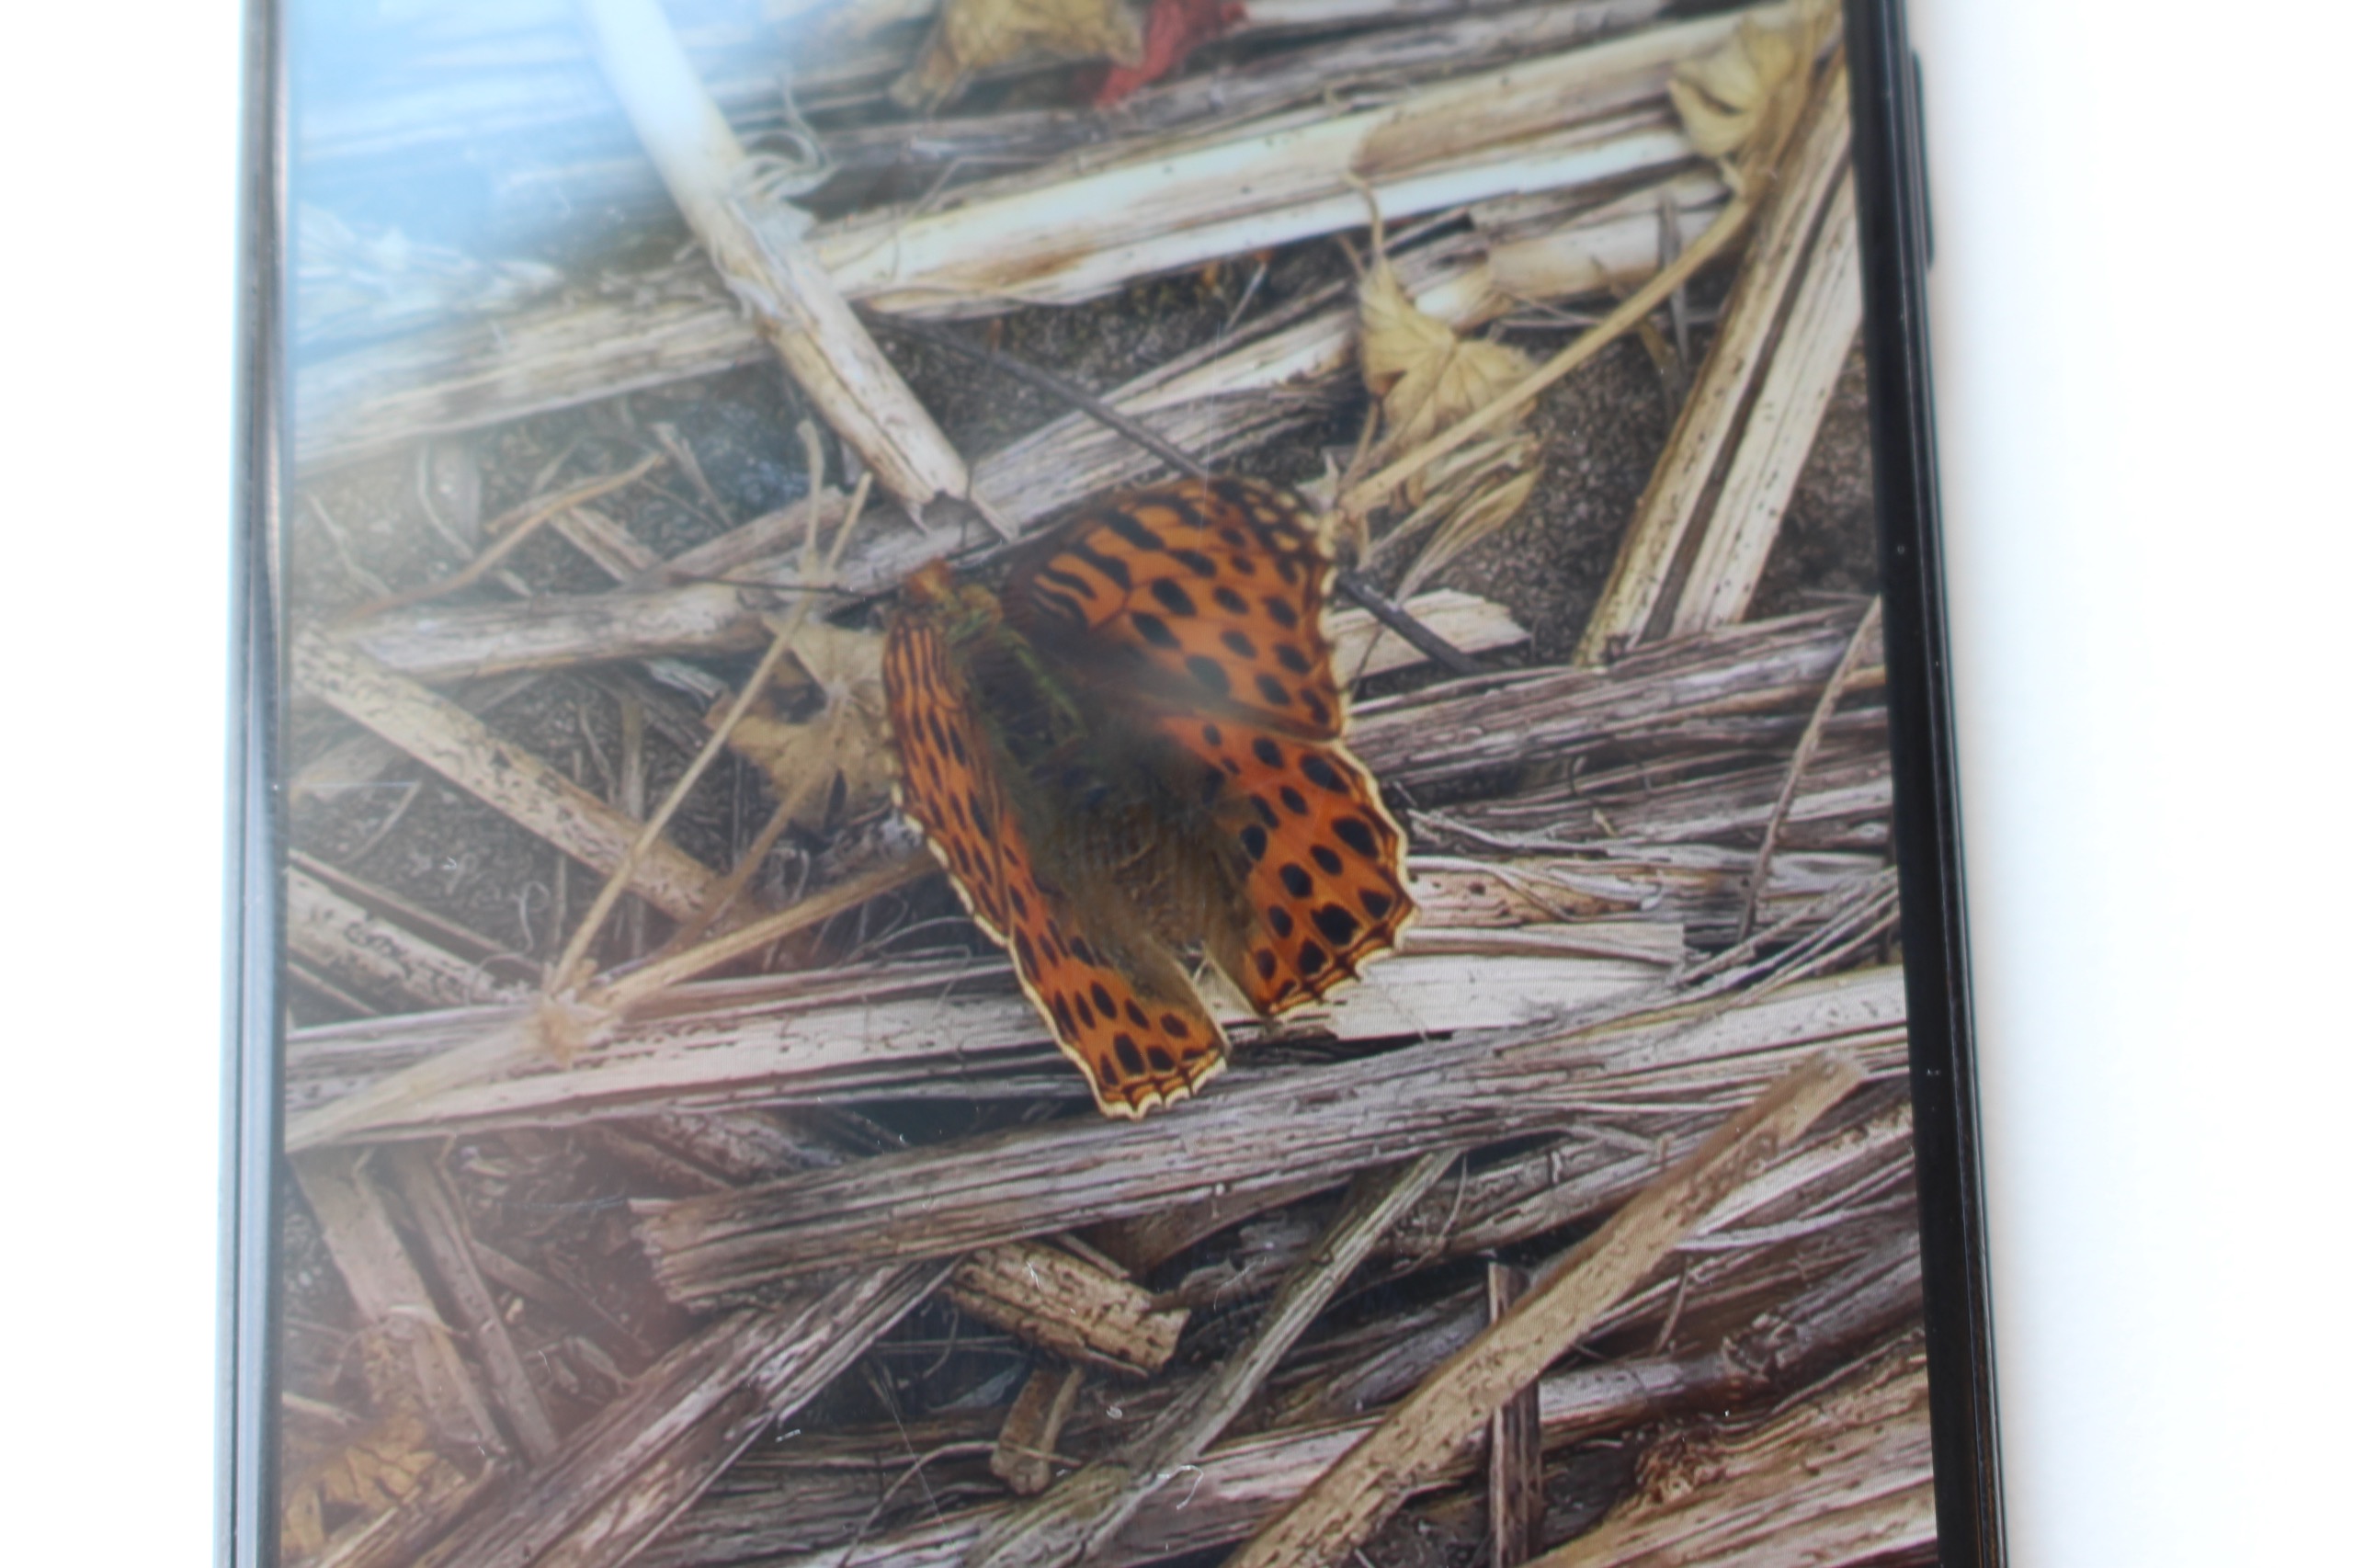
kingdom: Animalia
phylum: Arthropoda
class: Insecta
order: Lepidoptera
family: Nymphalidae
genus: Issoria
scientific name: Issoria lathonia
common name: Storplettet perlemorsommerfugl
